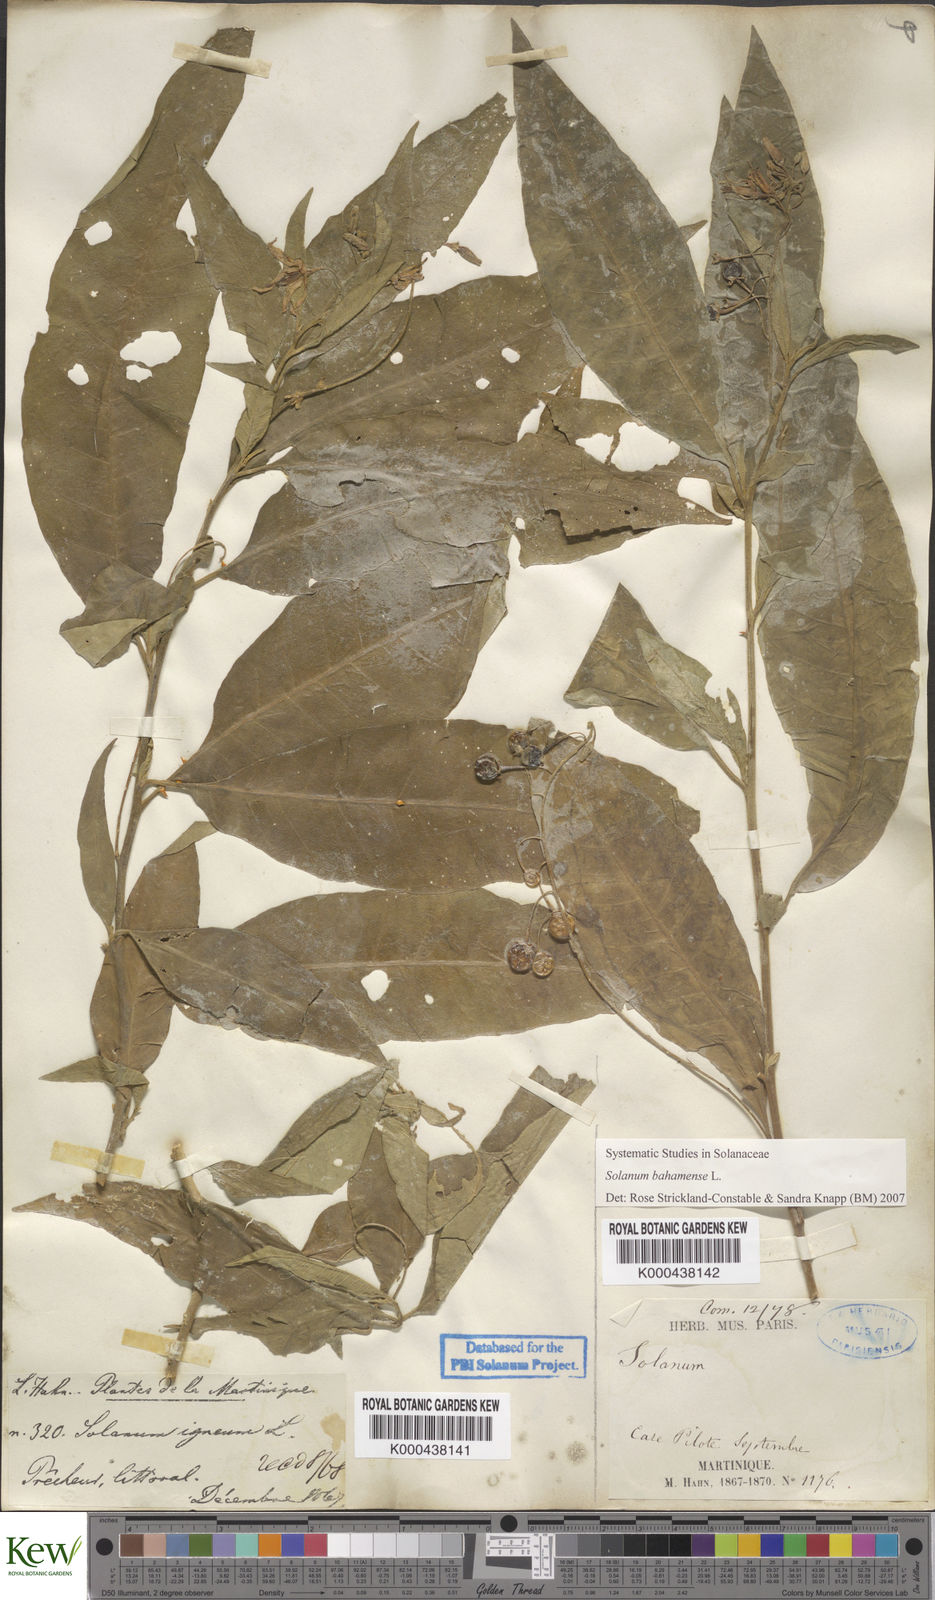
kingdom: Plantae
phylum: Tracheophyta
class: Magnoliopsida
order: Solanales
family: Solanaceae
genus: Solanum
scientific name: Solanum bahamense
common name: Canker-berry
